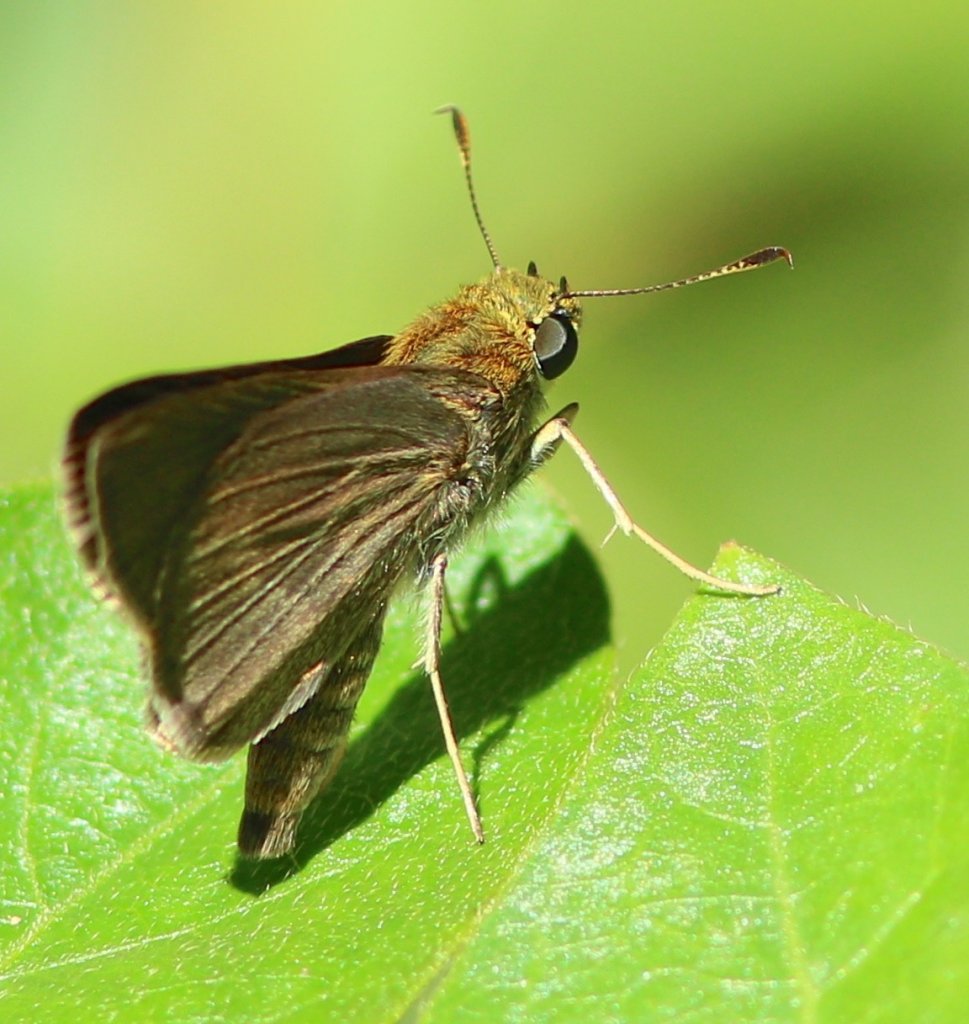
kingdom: Animalia
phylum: Arthropoda
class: Insecta
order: Lepidoptera
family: Hesperiidae
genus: Euphyes
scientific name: Euphyes vestris
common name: Dun Skipper
